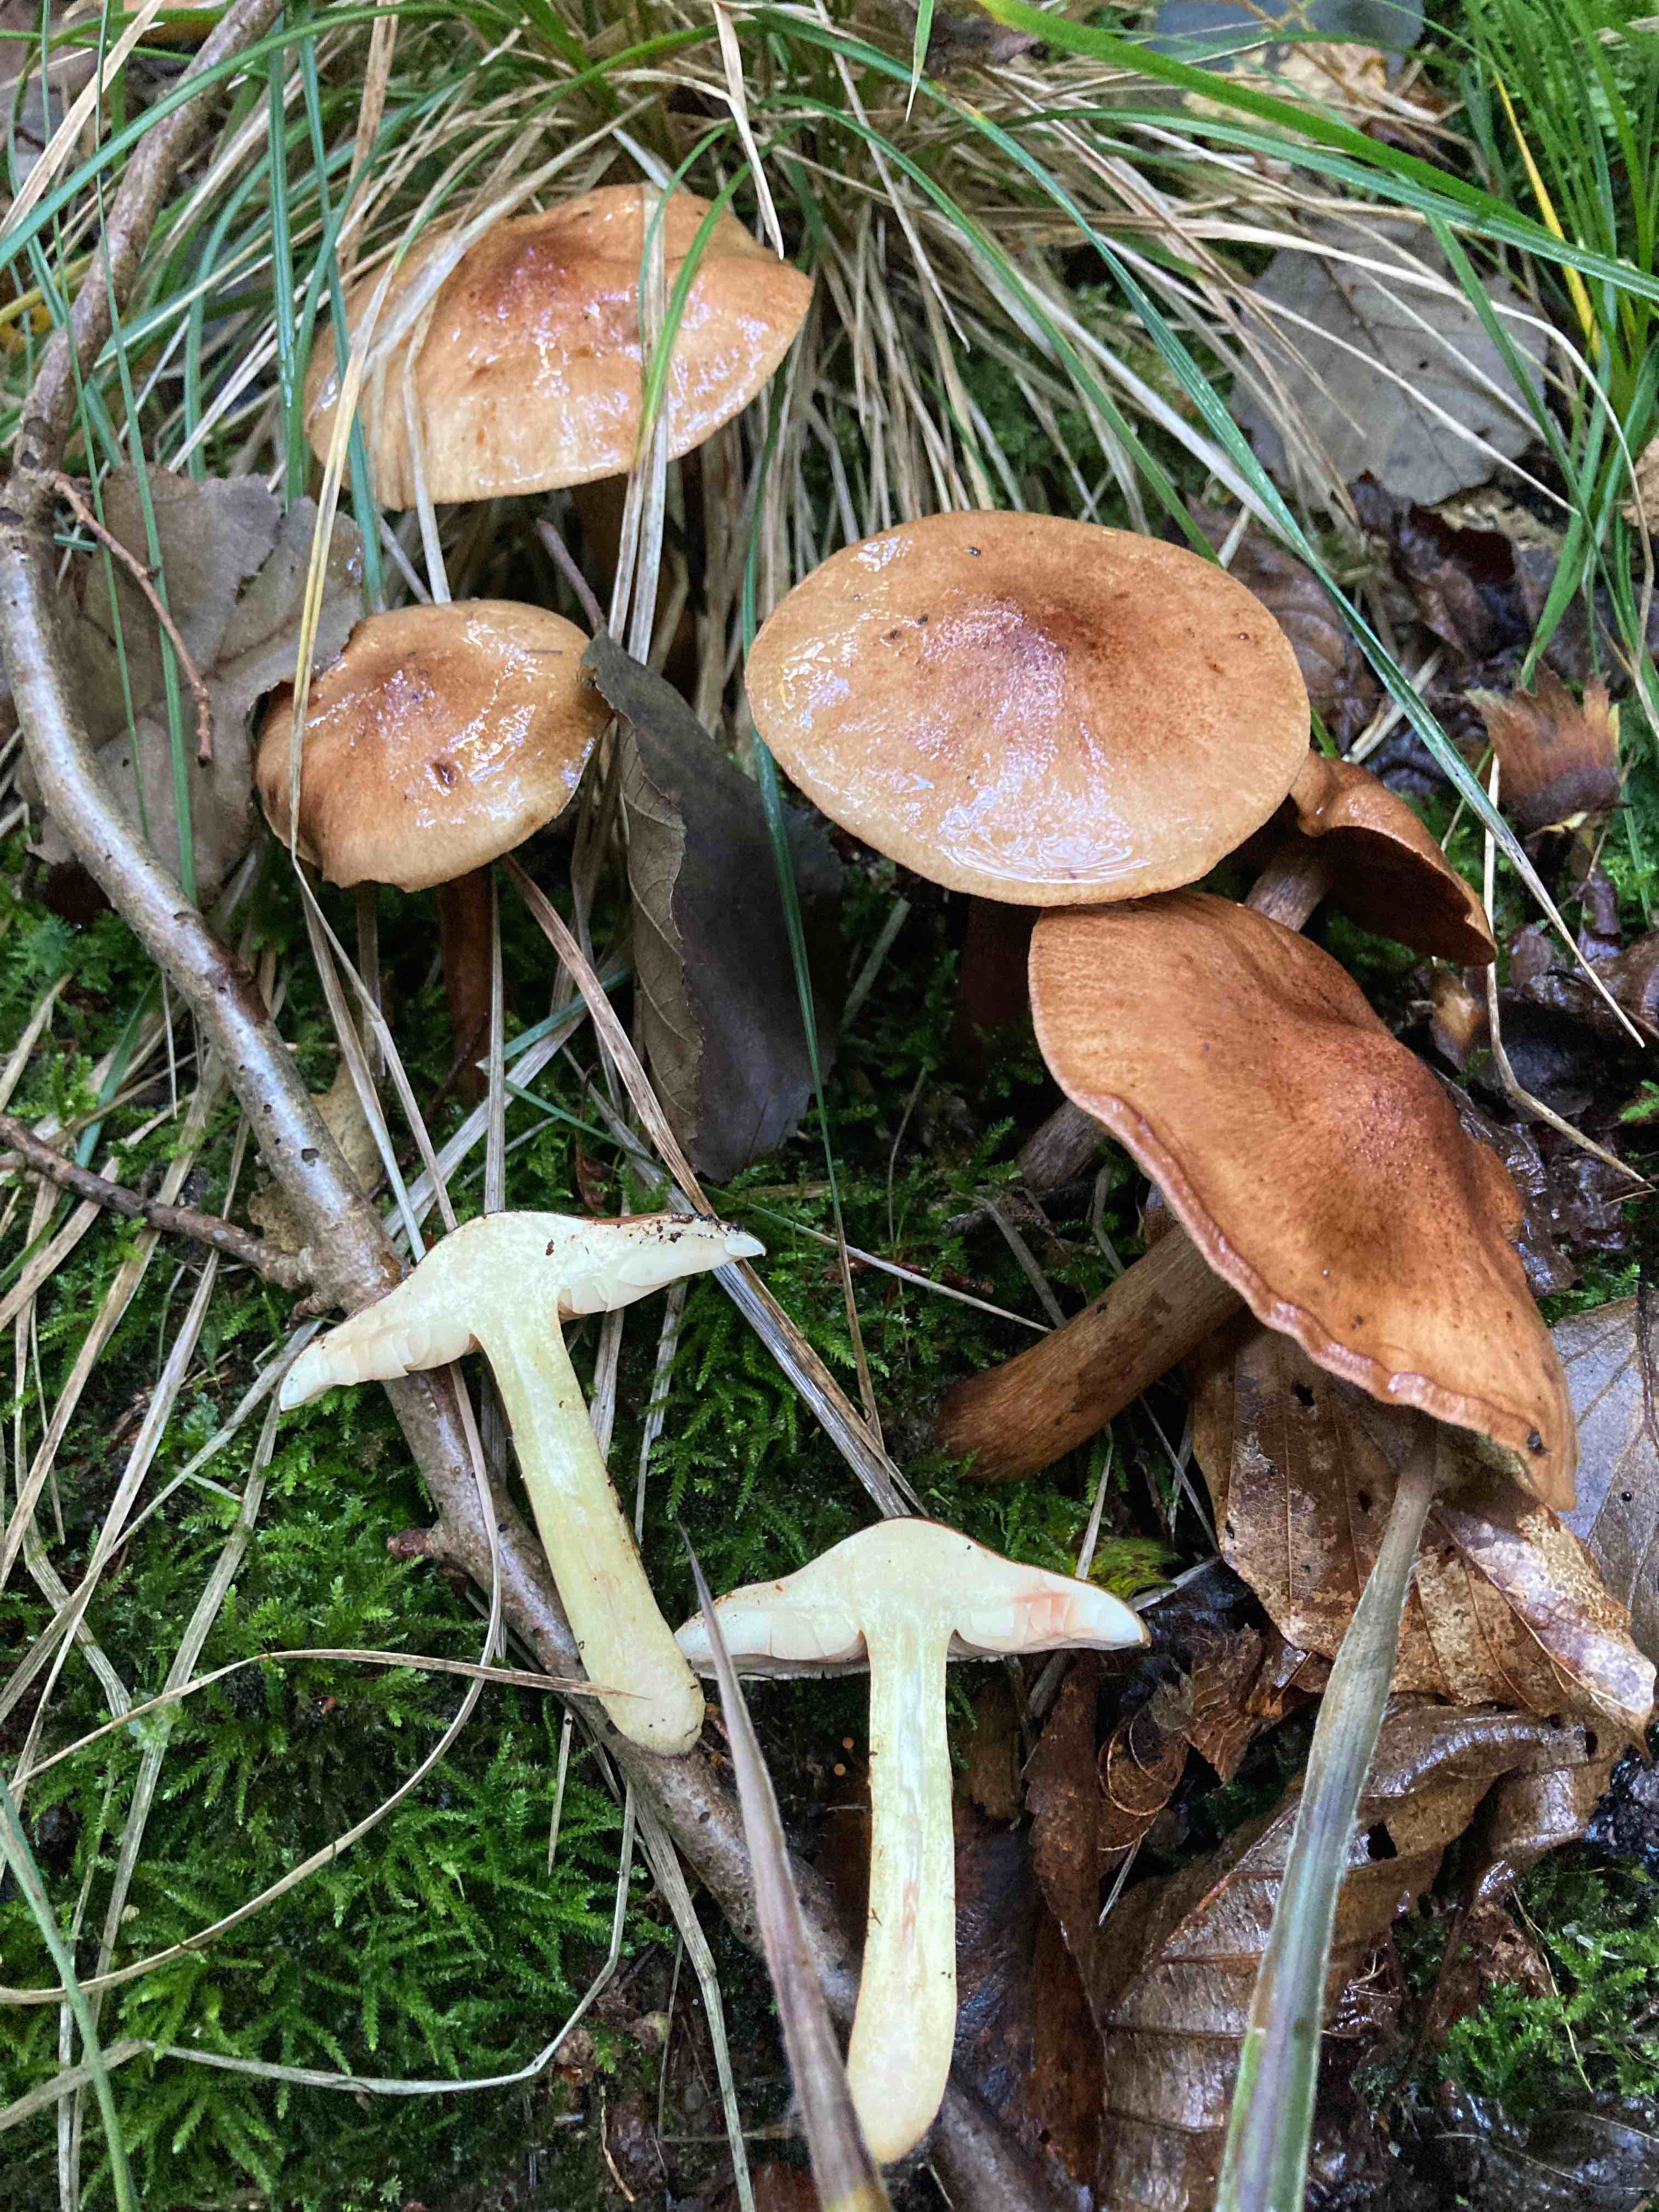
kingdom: Fungi
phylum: Basidiomycota
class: Agaricomycetes
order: Agaricales
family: Tricholomataceae
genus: Tricholoma
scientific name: Tricholoma fulvum
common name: birke-ridderhat
